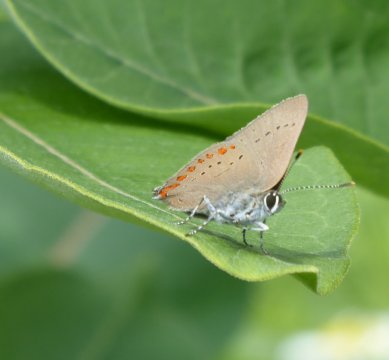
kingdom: Animalia
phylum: Arthropoda
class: Insecta
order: Lepidoptera
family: Lycaenidae
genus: Harkenclenus
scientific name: Harkenclenus titus
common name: Coral Hairstreak
